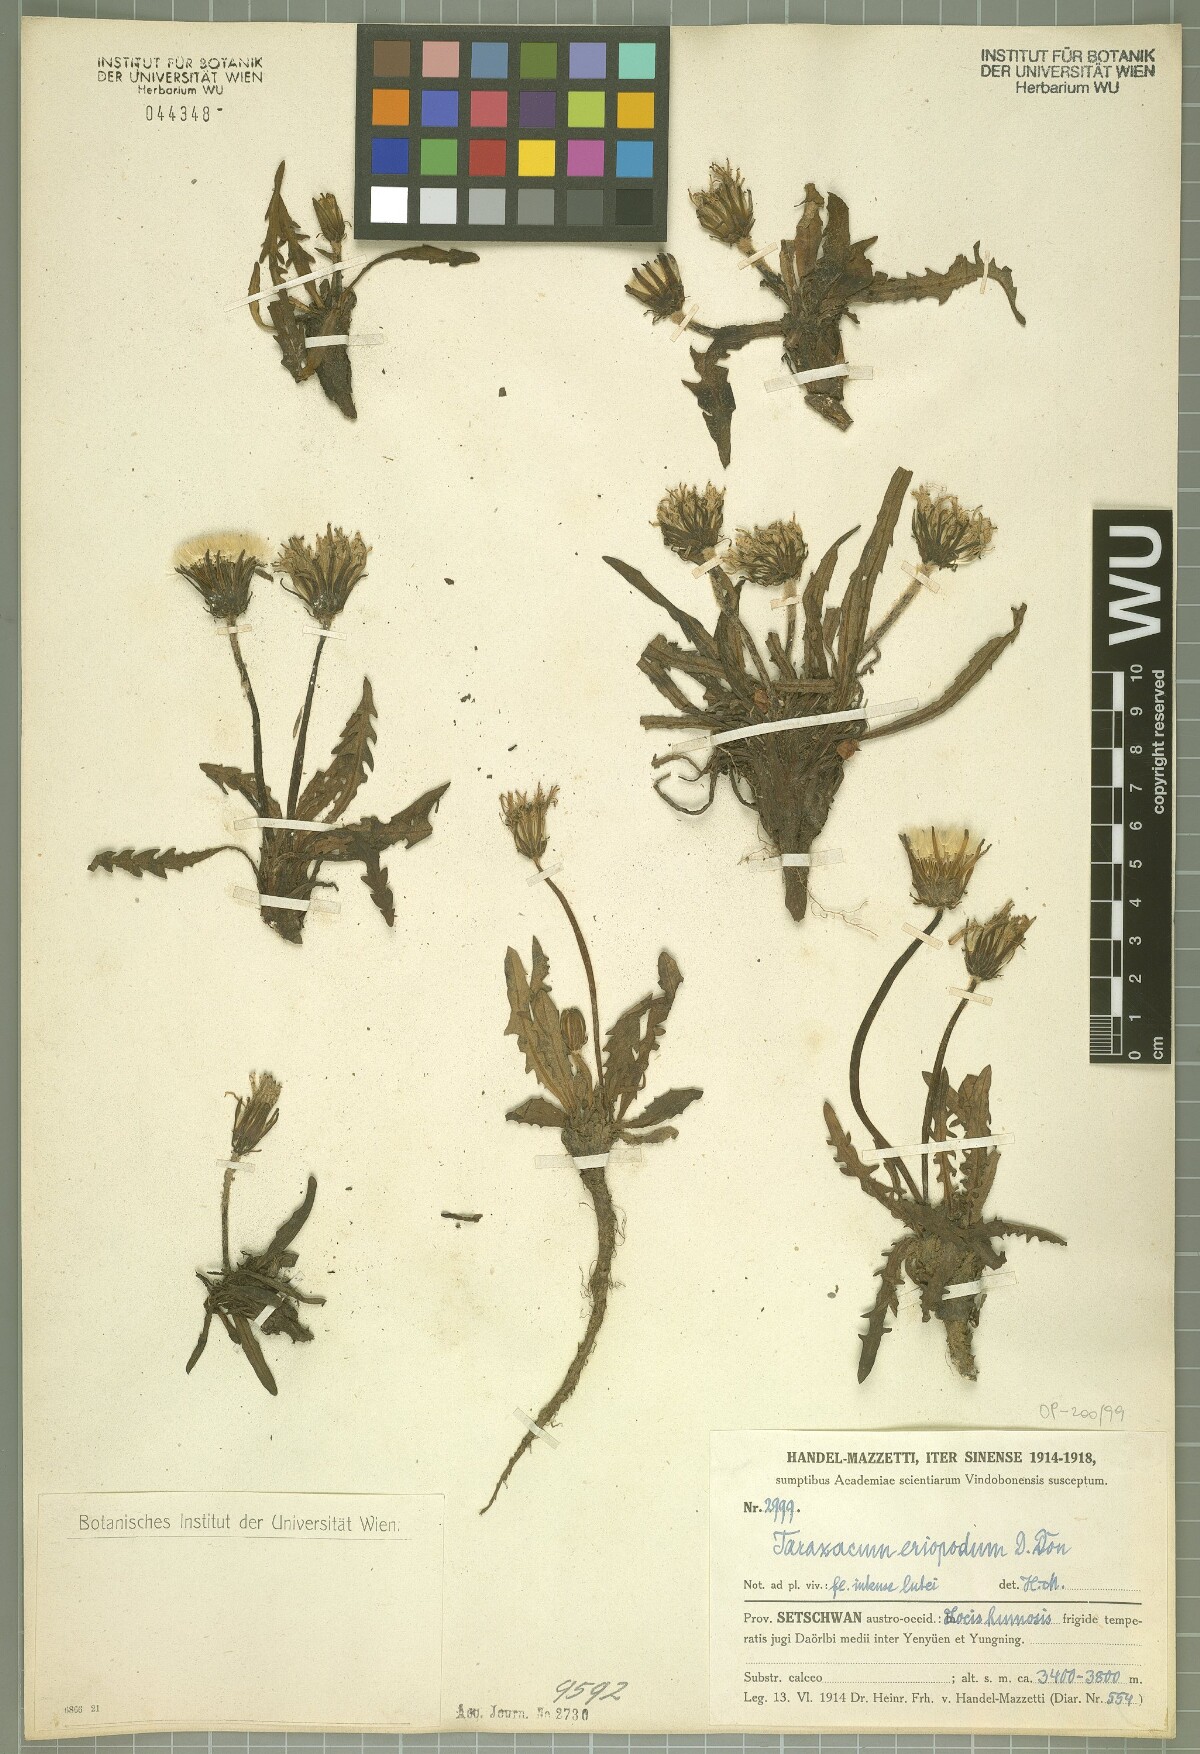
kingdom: Plantae
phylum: Tracheophyta
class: Magnoliopsida
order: Asterales
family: Asteraceae
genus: Taraxacum
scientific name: Taraxacum eriopodum
